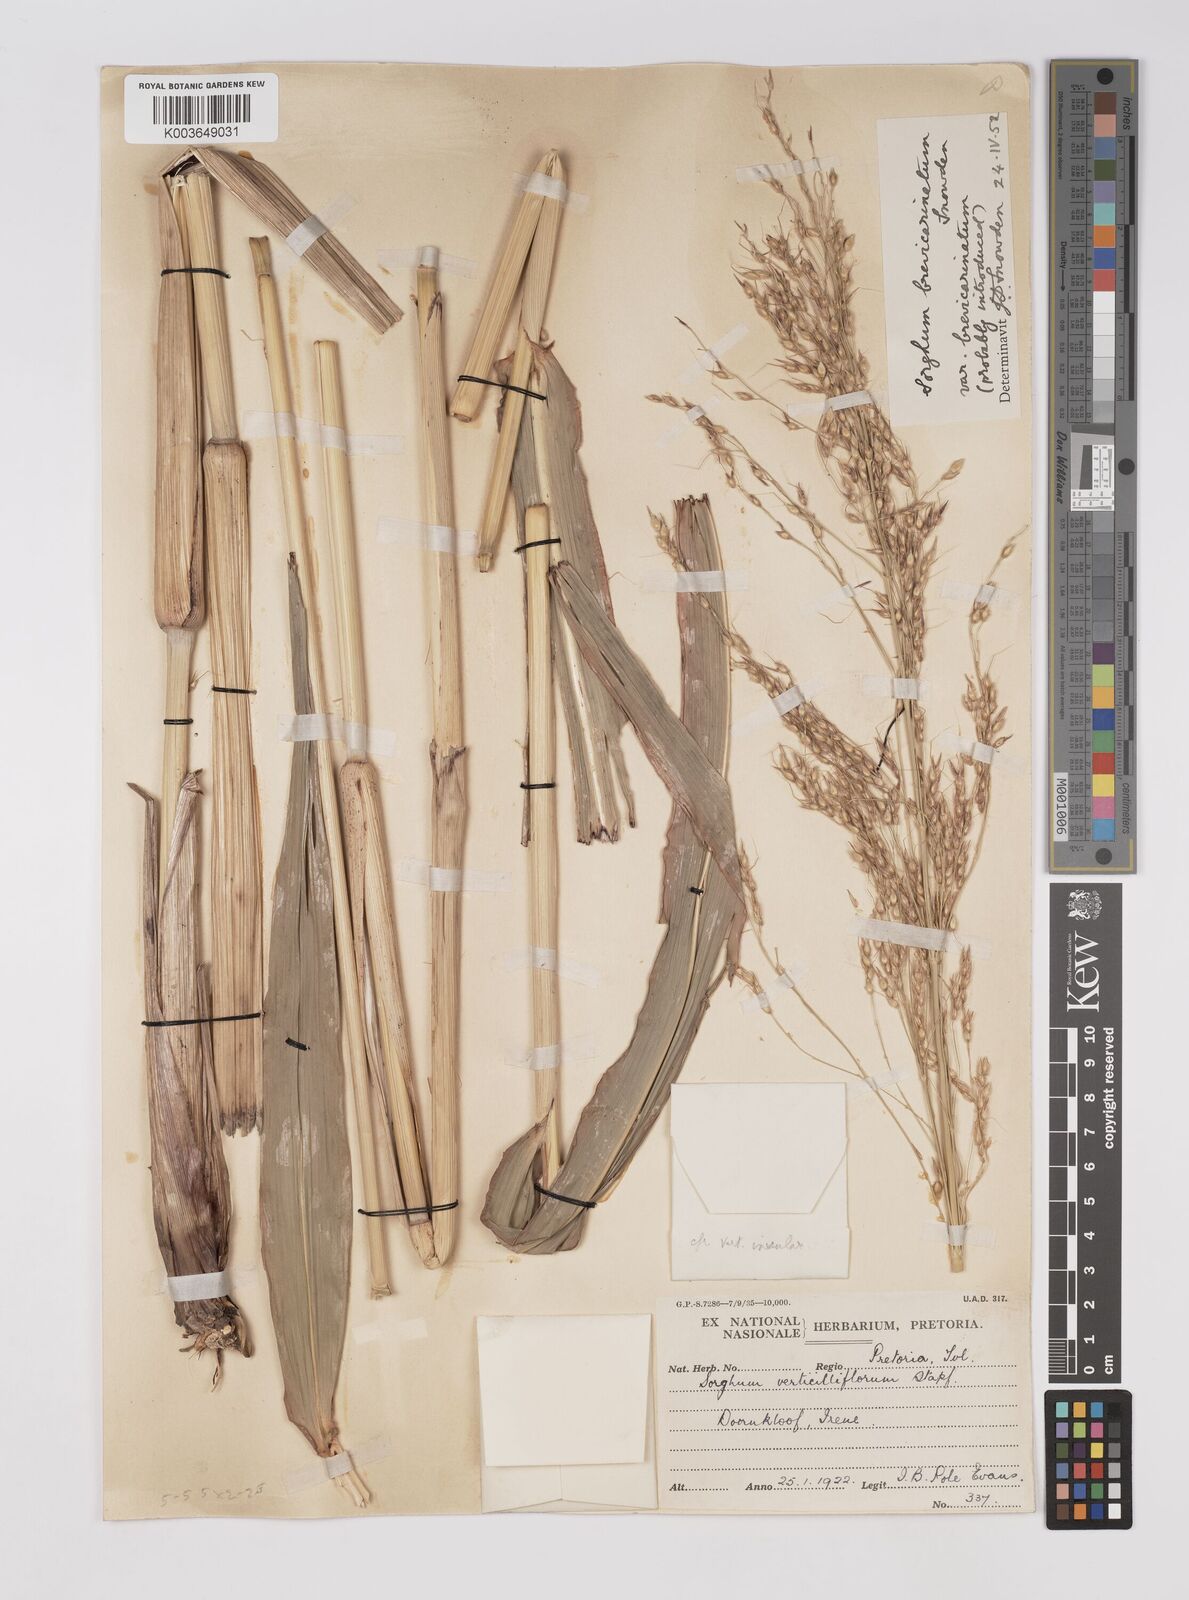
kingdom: Plantae
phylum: Tracheophyta
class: Liliopsida
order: Poales
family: Poaceae
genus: Sorghum
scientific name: Sorghum arundinaceum
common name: Sorghum
